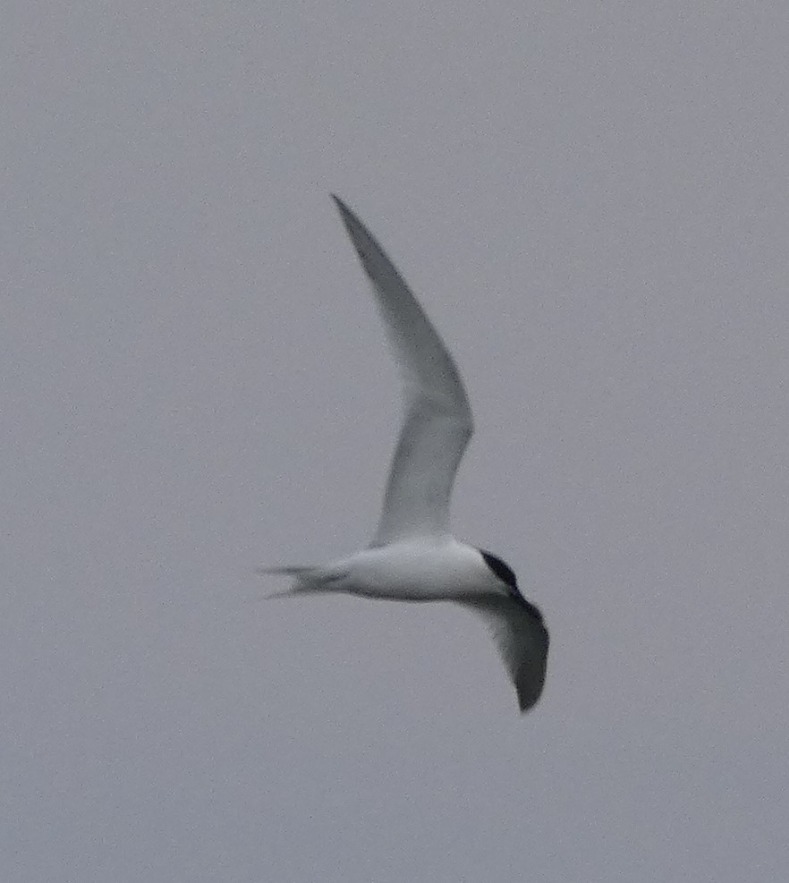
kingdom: Animalia
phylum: Chordata
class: Aves
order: Charadriiformes
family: Laridae
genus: Thalasseus
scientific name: Thalasseus sandvicensis
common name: Splitterne
